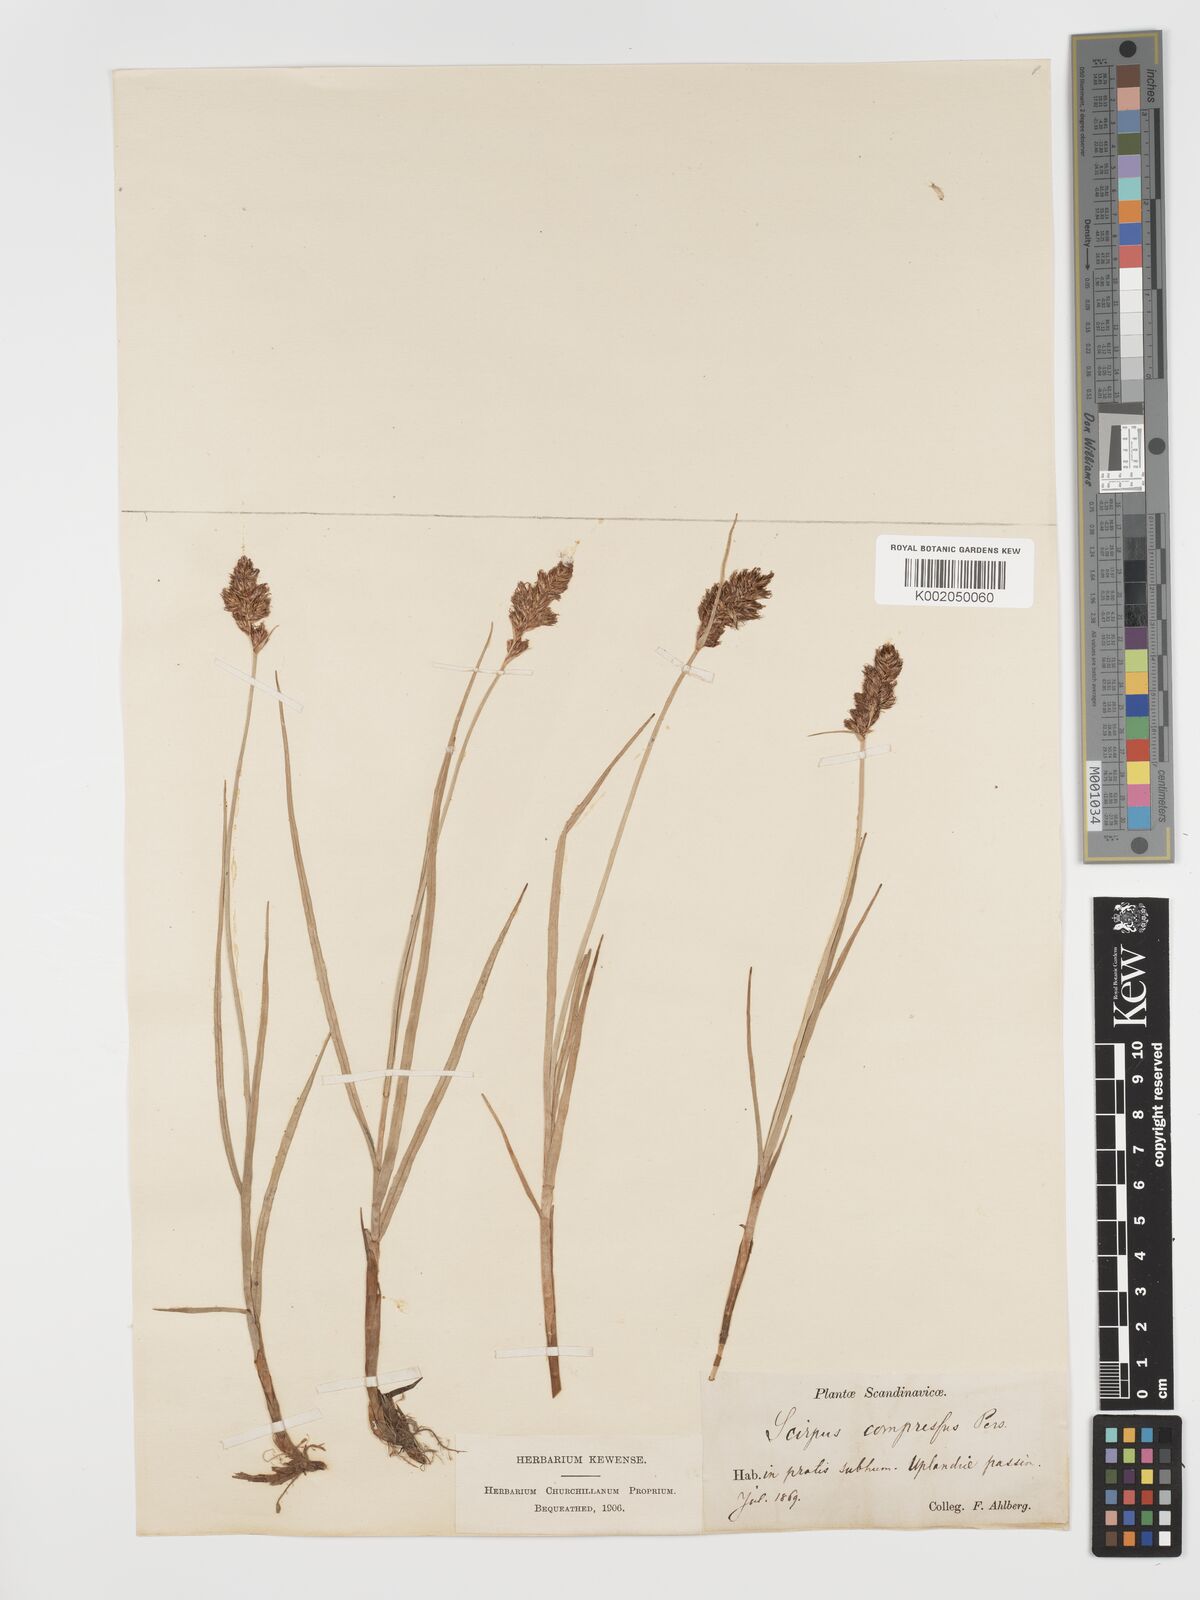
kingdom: Plantae
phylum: Tracheophyta
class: Liliopsida
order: Poales
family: Cyperaceae
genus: Blysmus
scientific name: Blysmus compressus
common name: Flat-sedge
